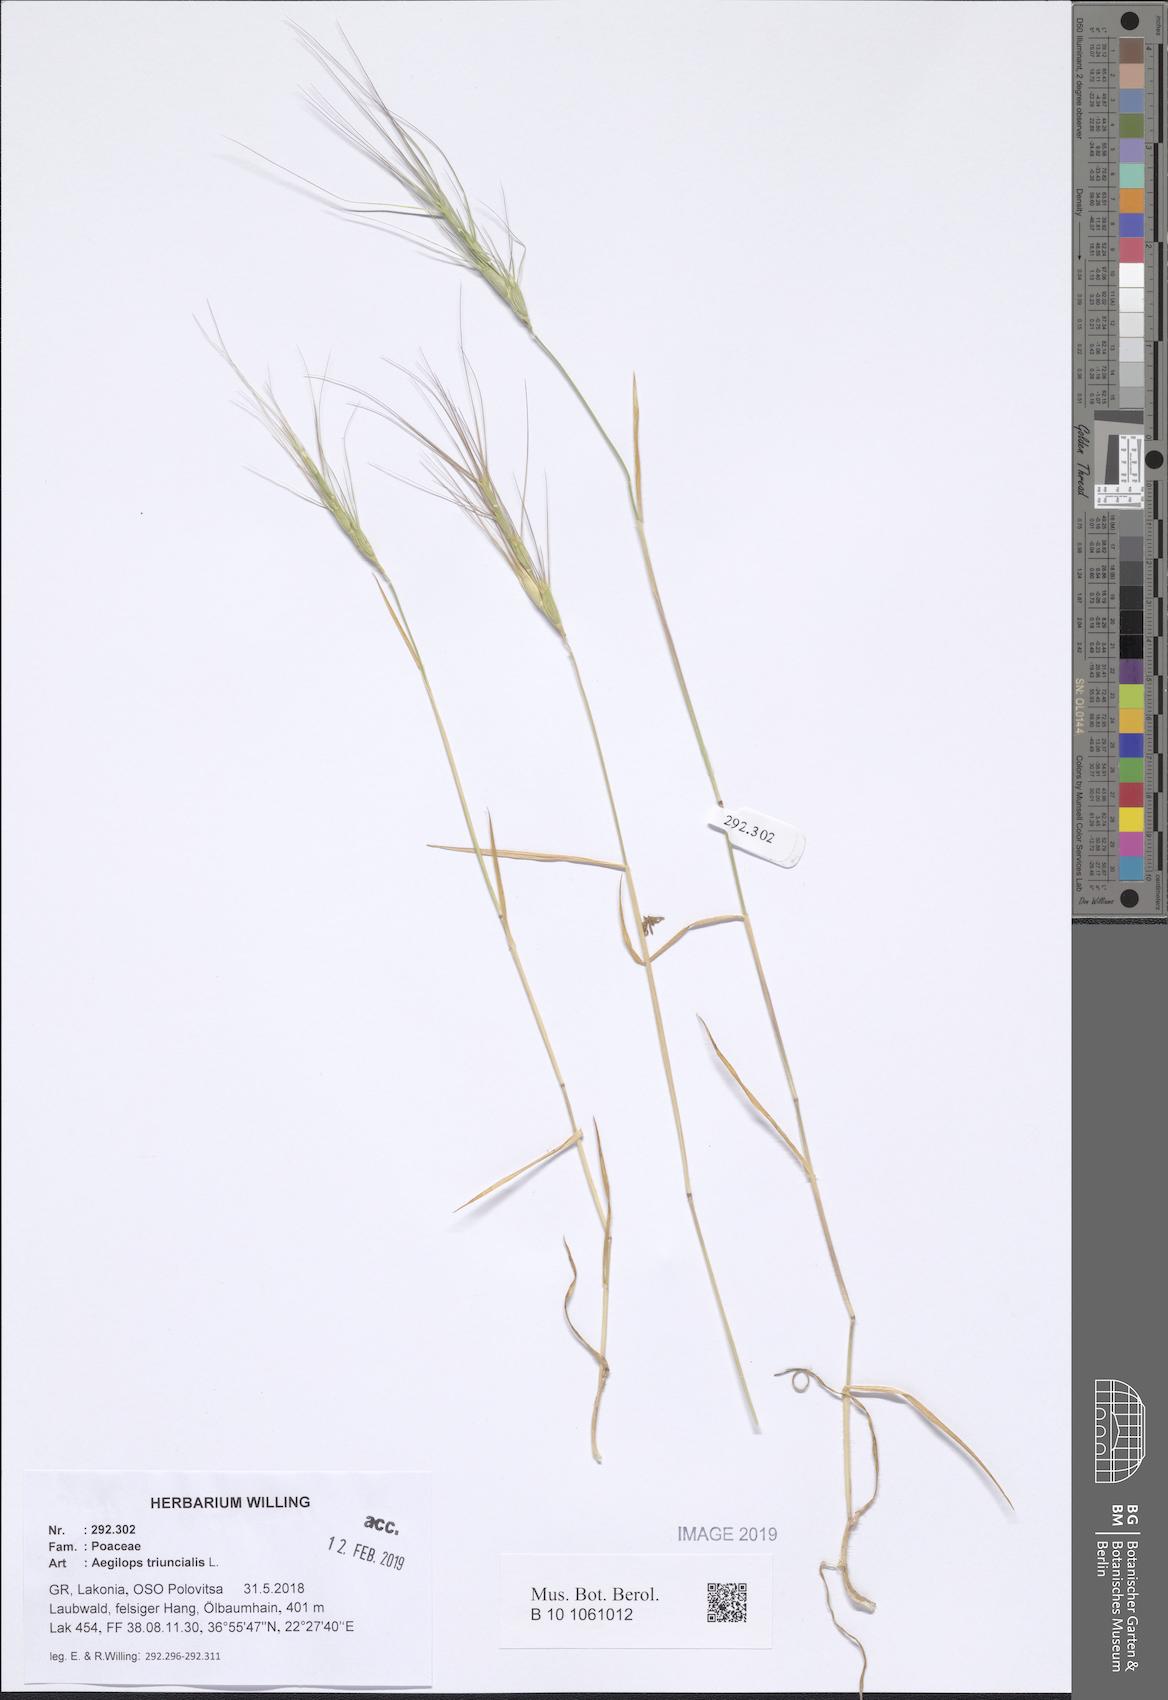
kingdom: Plantae
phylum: Tracheophyta
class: Liliopsida
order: Poales
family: Poaceae
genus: Aegilops
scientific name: Aegilops triuncialis
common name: Barb goat grass
